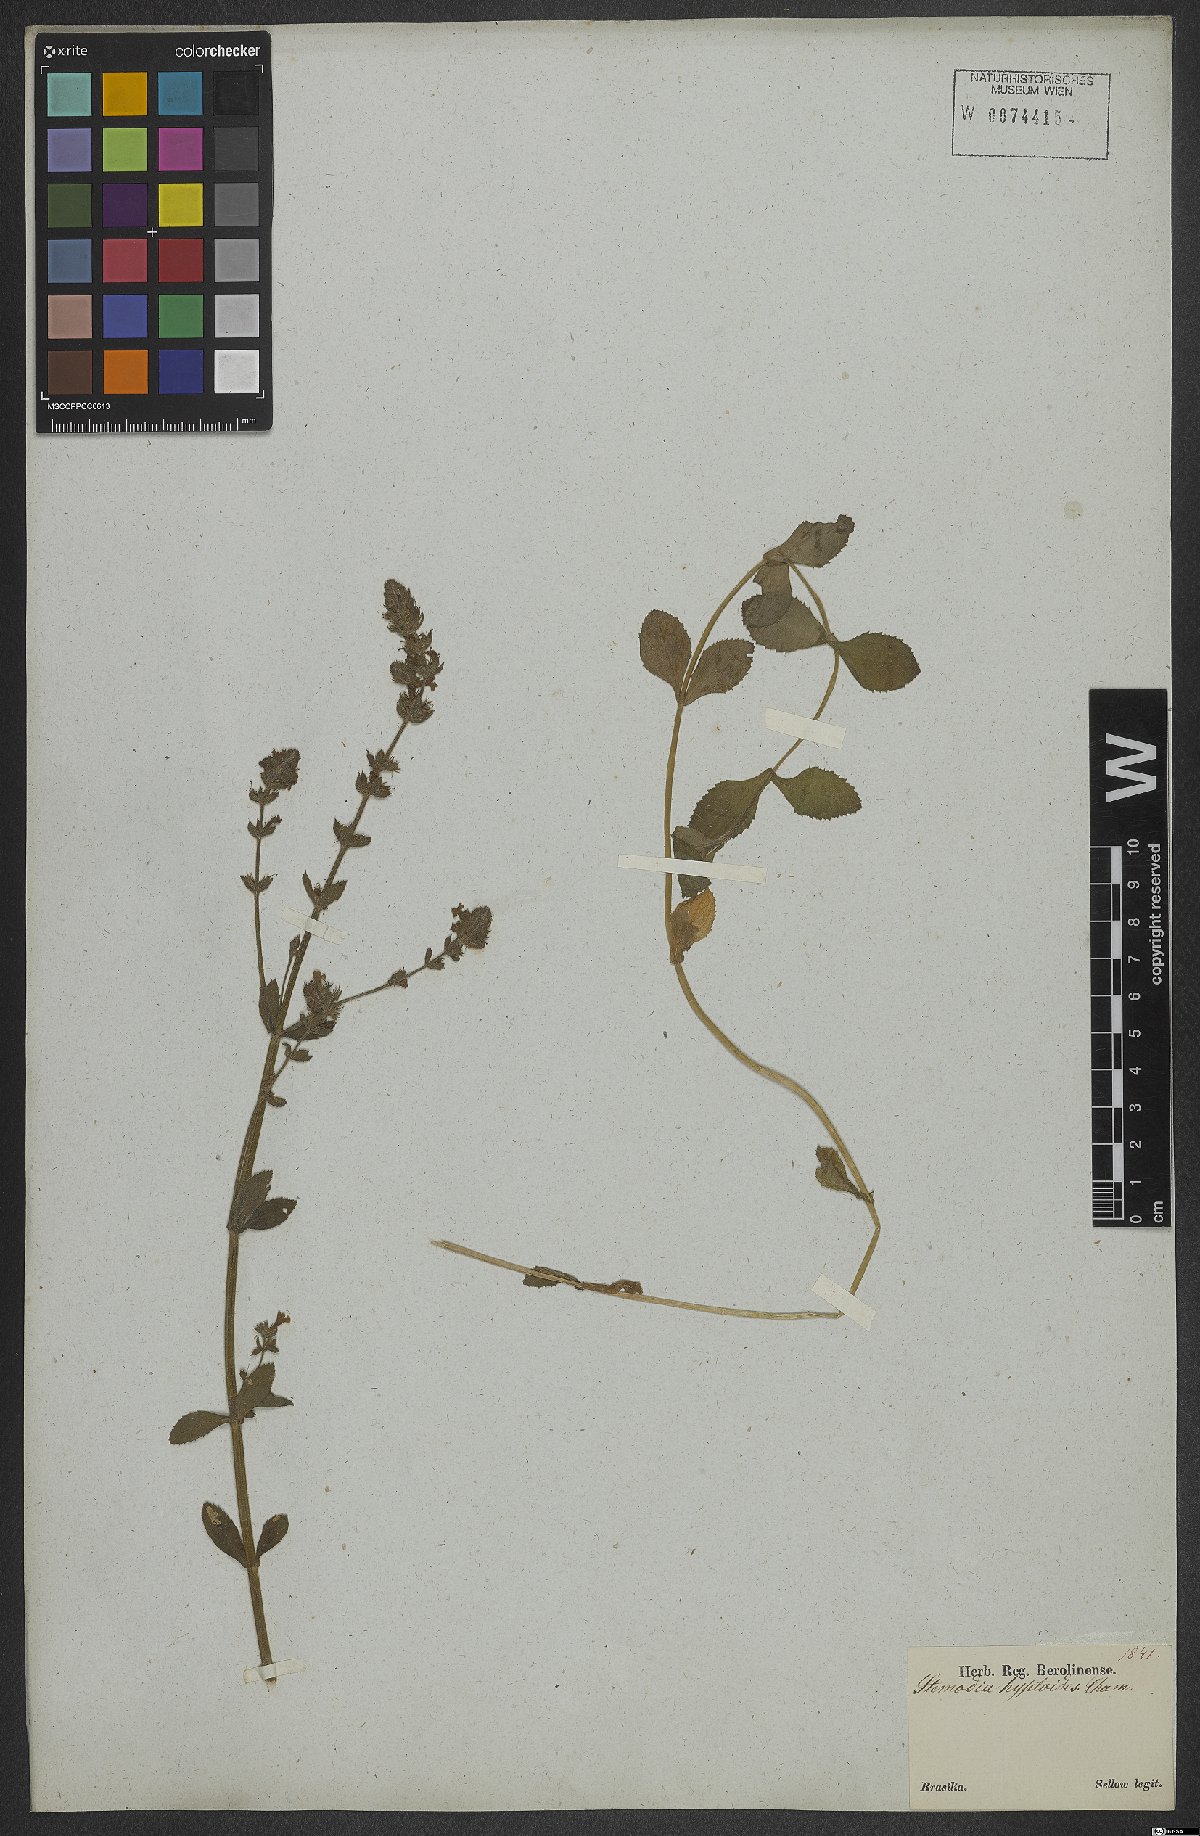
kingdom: Plantae
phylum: Tracheophyta
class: Magnoliopsida
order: Lamiales
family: Plantaginaceae
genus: Stemodia
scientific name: Stemodia hyptoides
